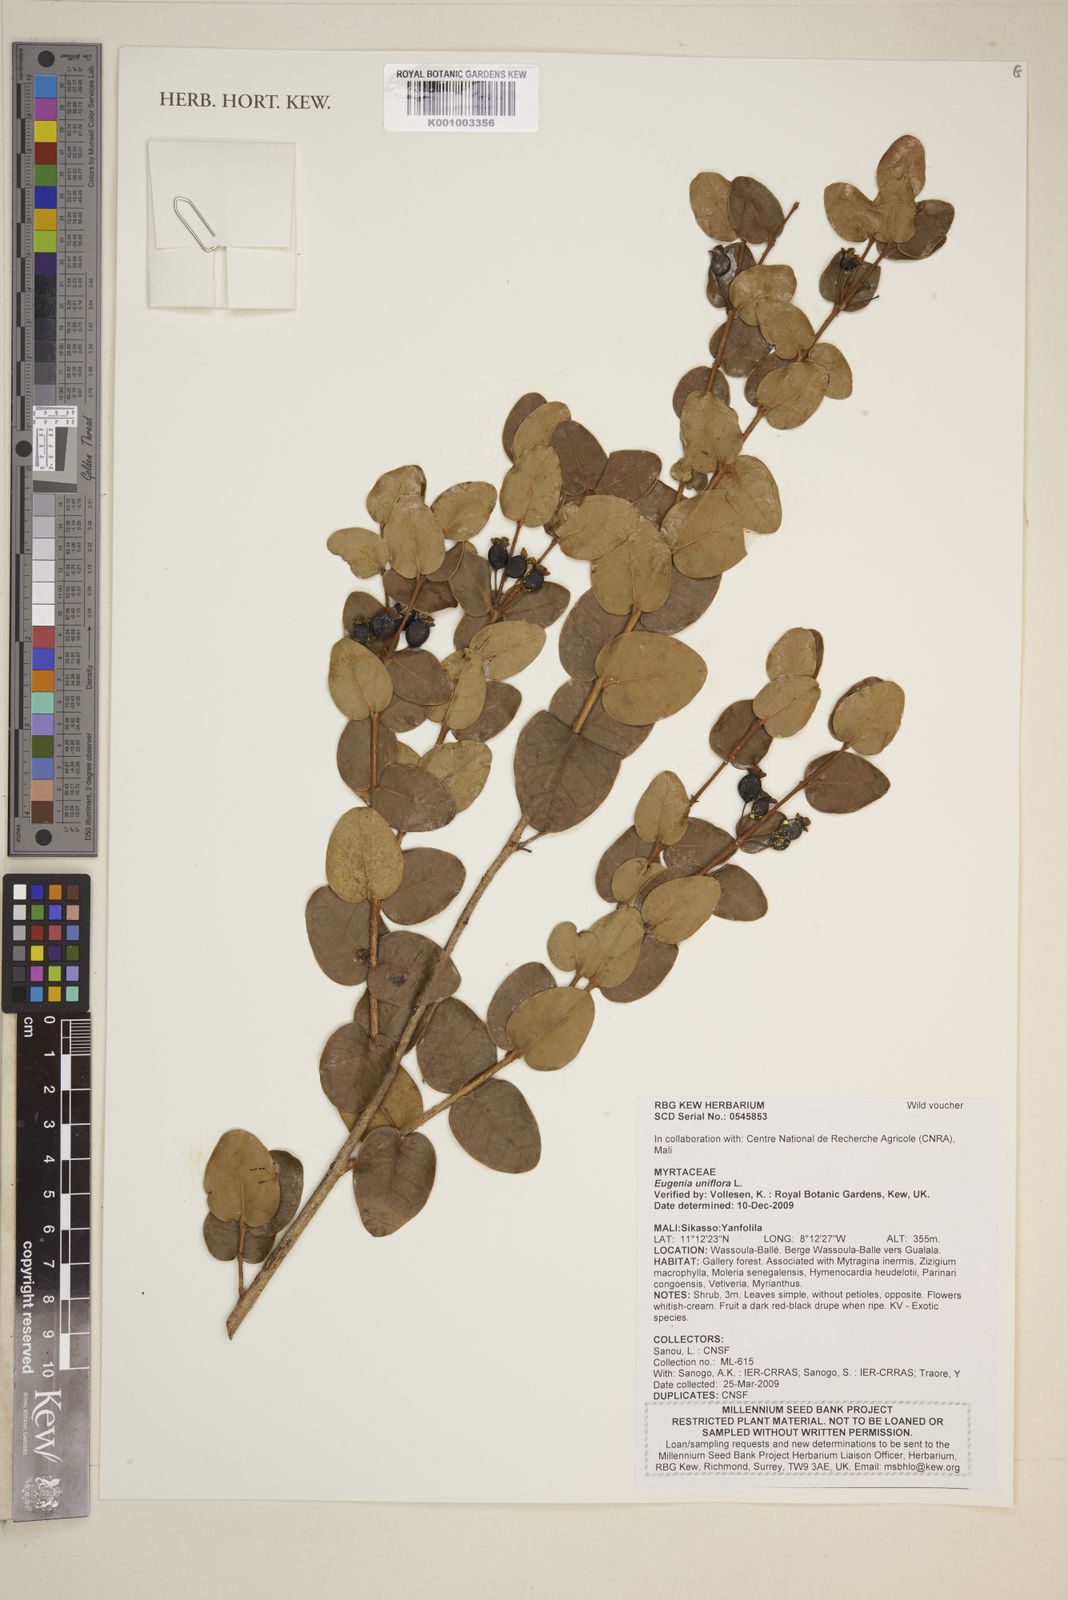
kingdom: Plantae
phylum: Tracheophyta
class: Magnoliopsida
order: Myrtales
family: Myrtaceae
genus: Eugenia
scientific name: Eugenia uniflora
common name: Surinam cherry
